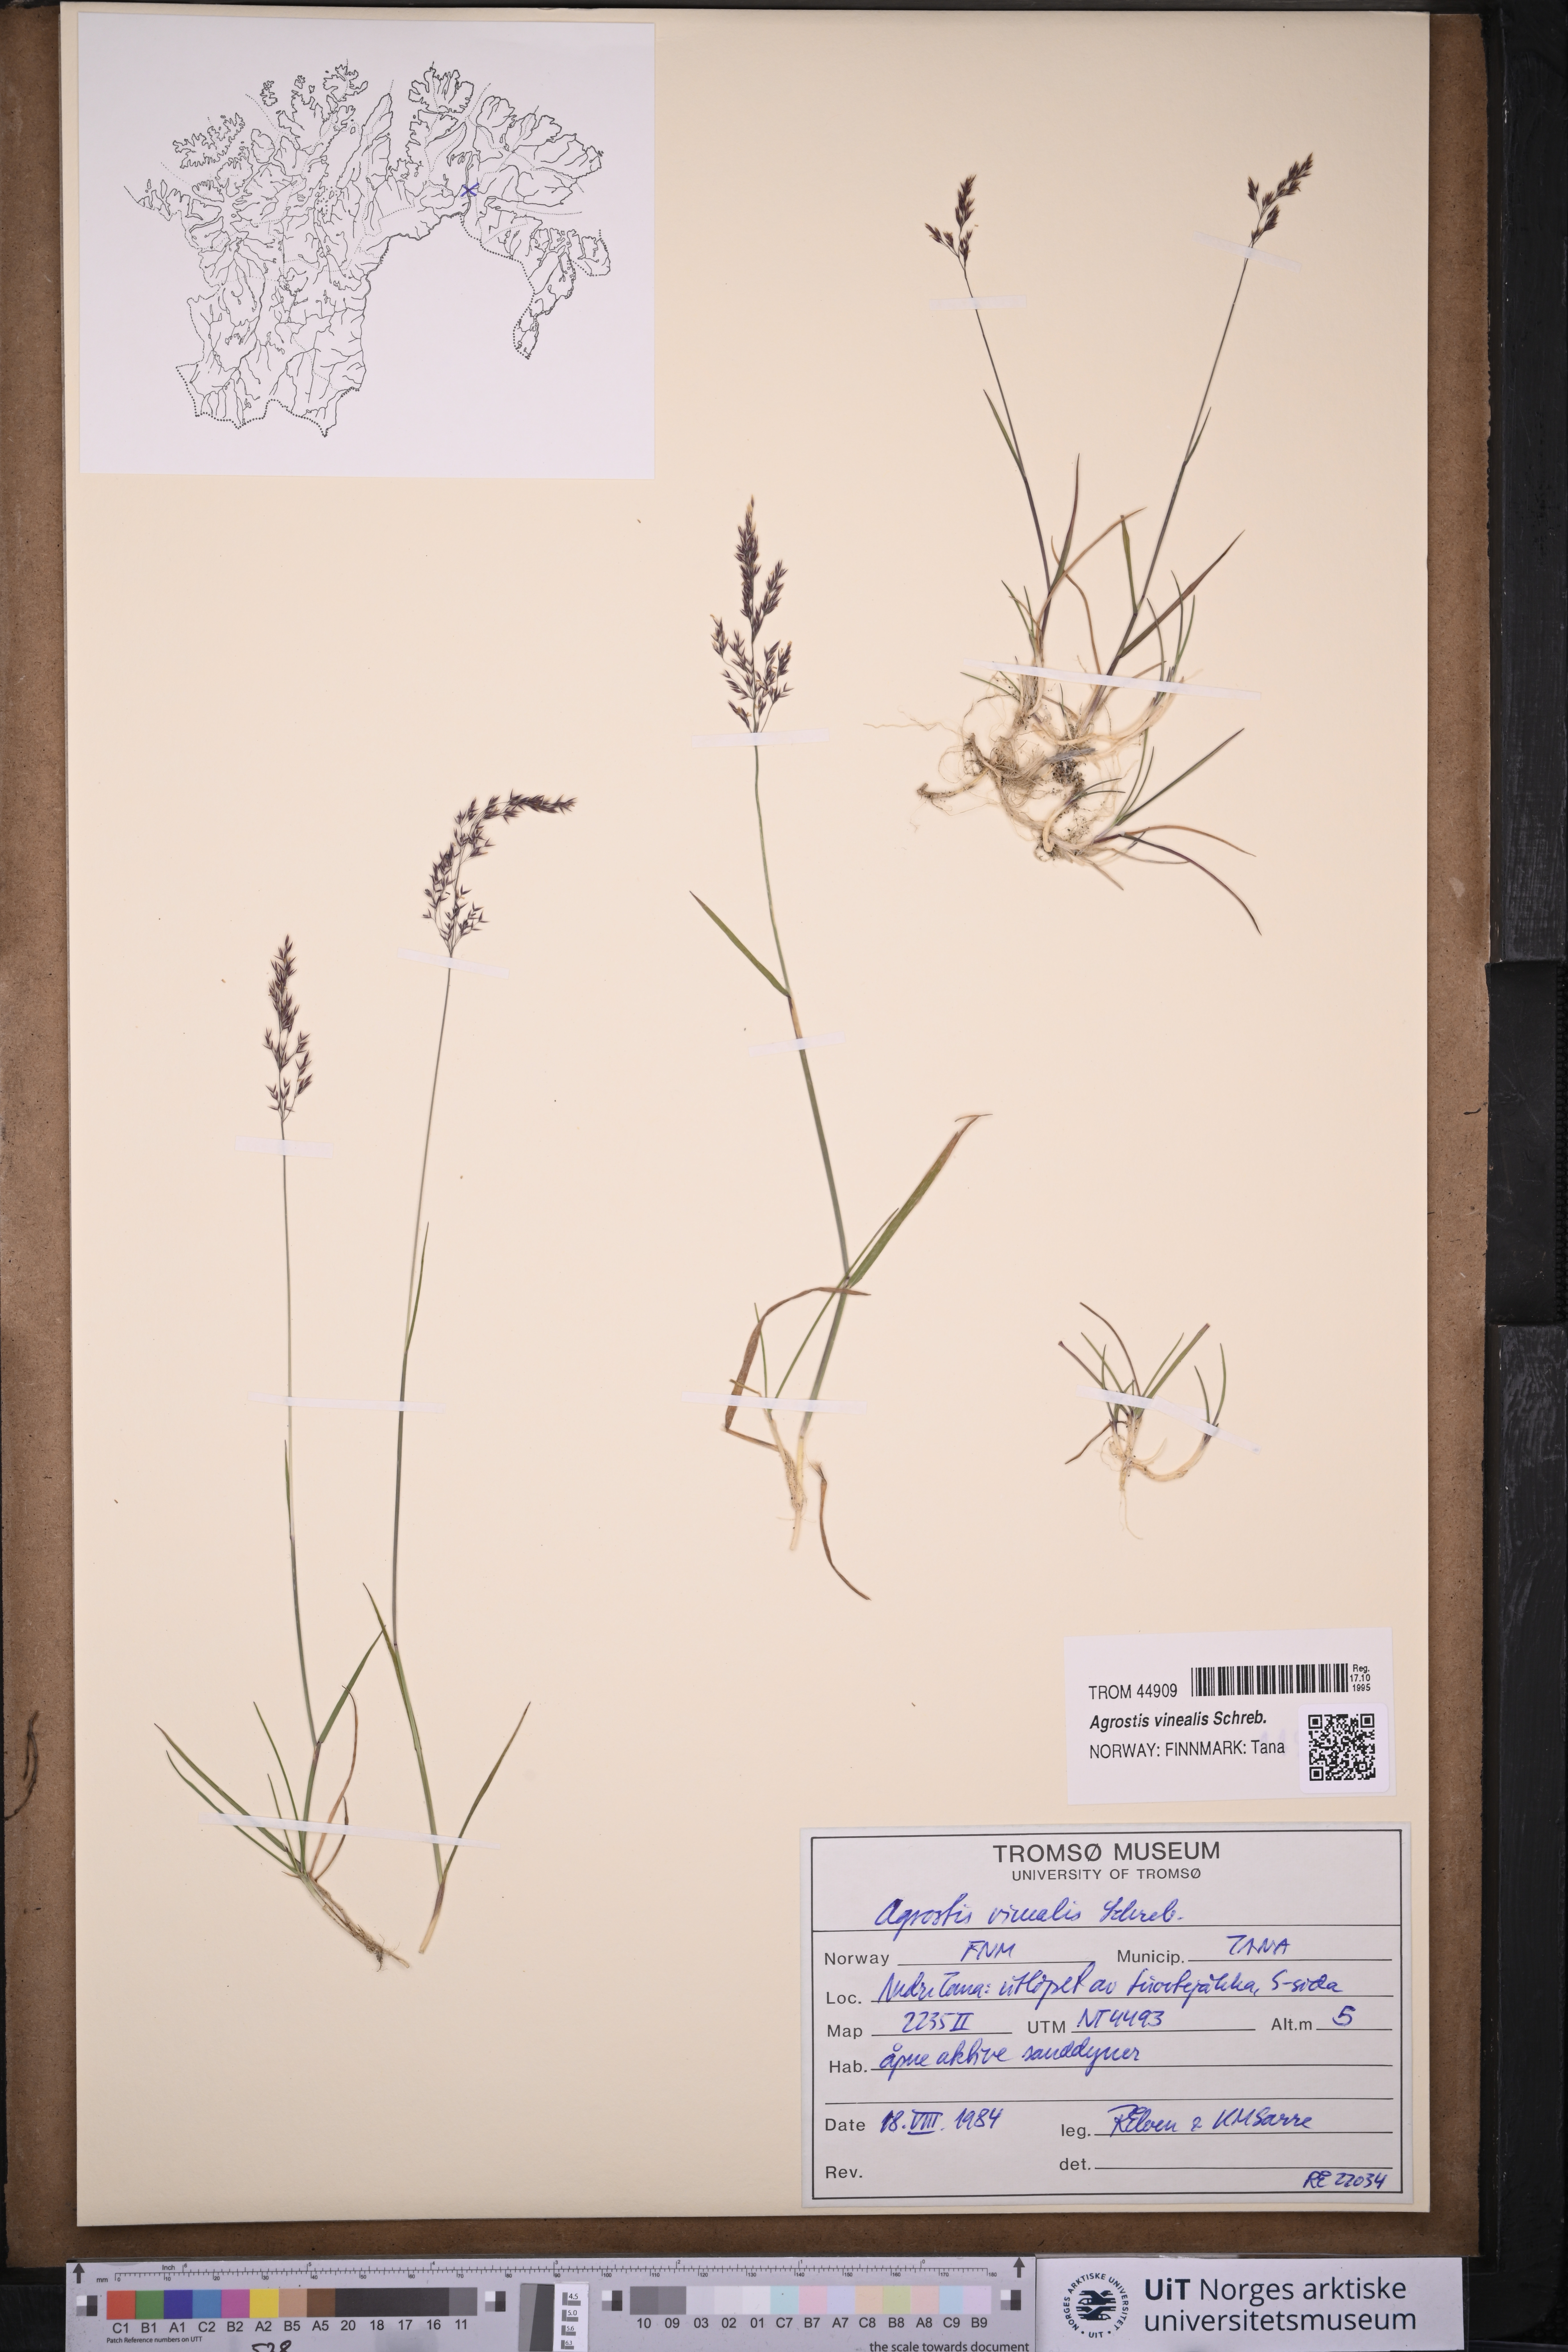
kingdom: Plantae
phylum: Tracheophyta
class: Liliopsida
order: Poales
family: Poaceae
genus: Agrostis
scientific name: Agrostis vinealis
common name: Brown bent
